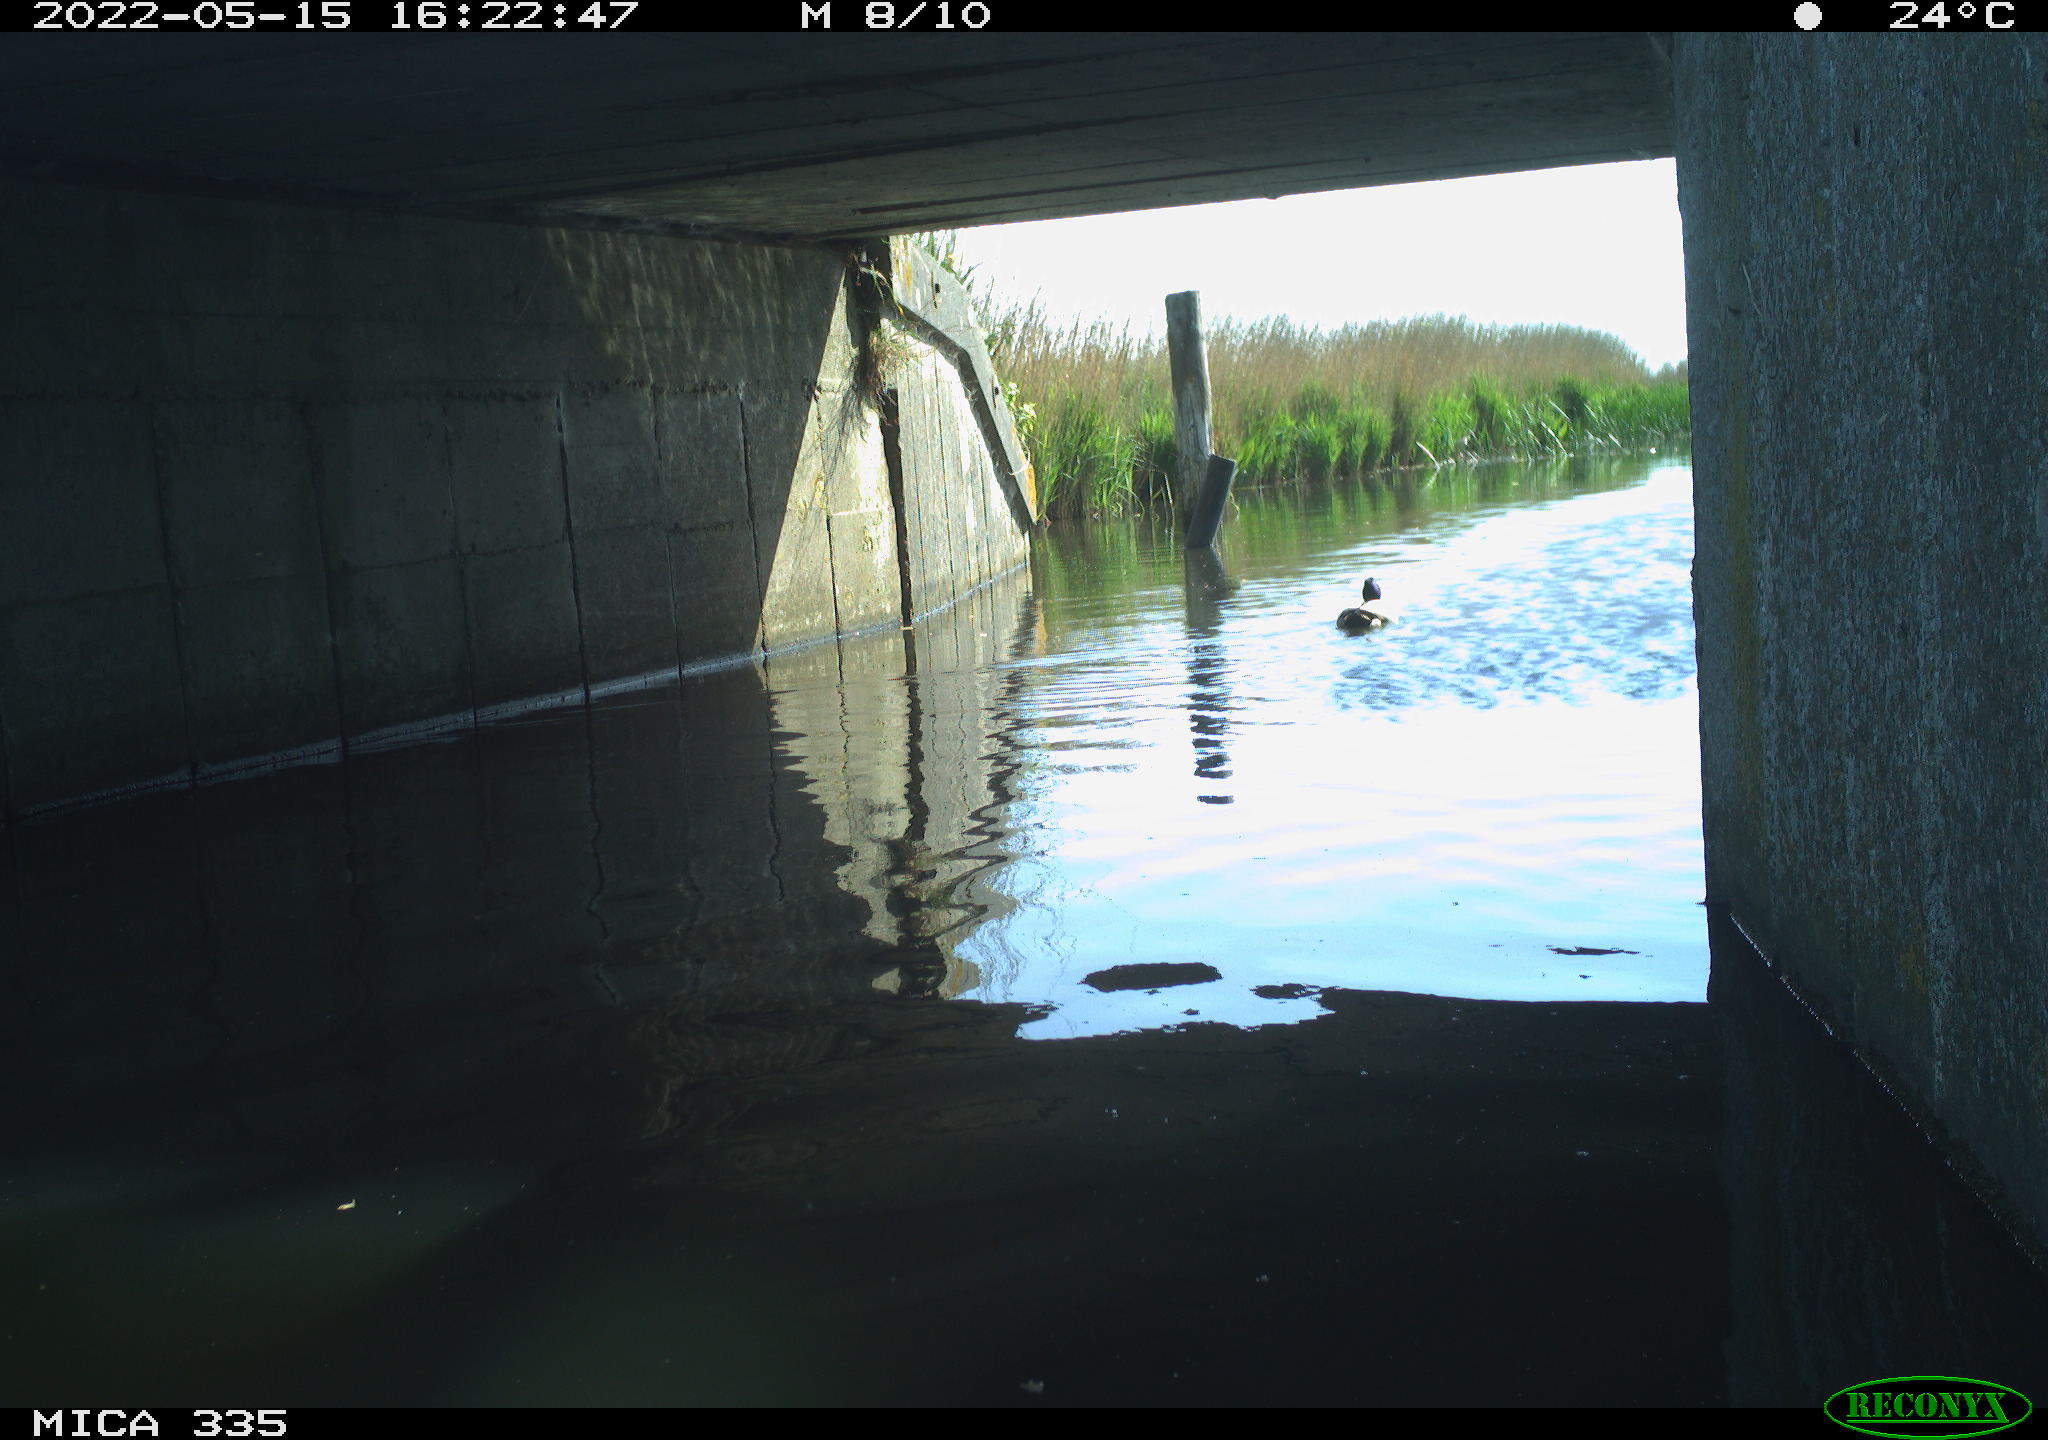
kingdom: Animalia
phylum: Chordata
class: Aves
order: Anseriformes
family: Anatidae
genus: Anas
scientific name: Anas platyrhynchos
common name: Mallard
